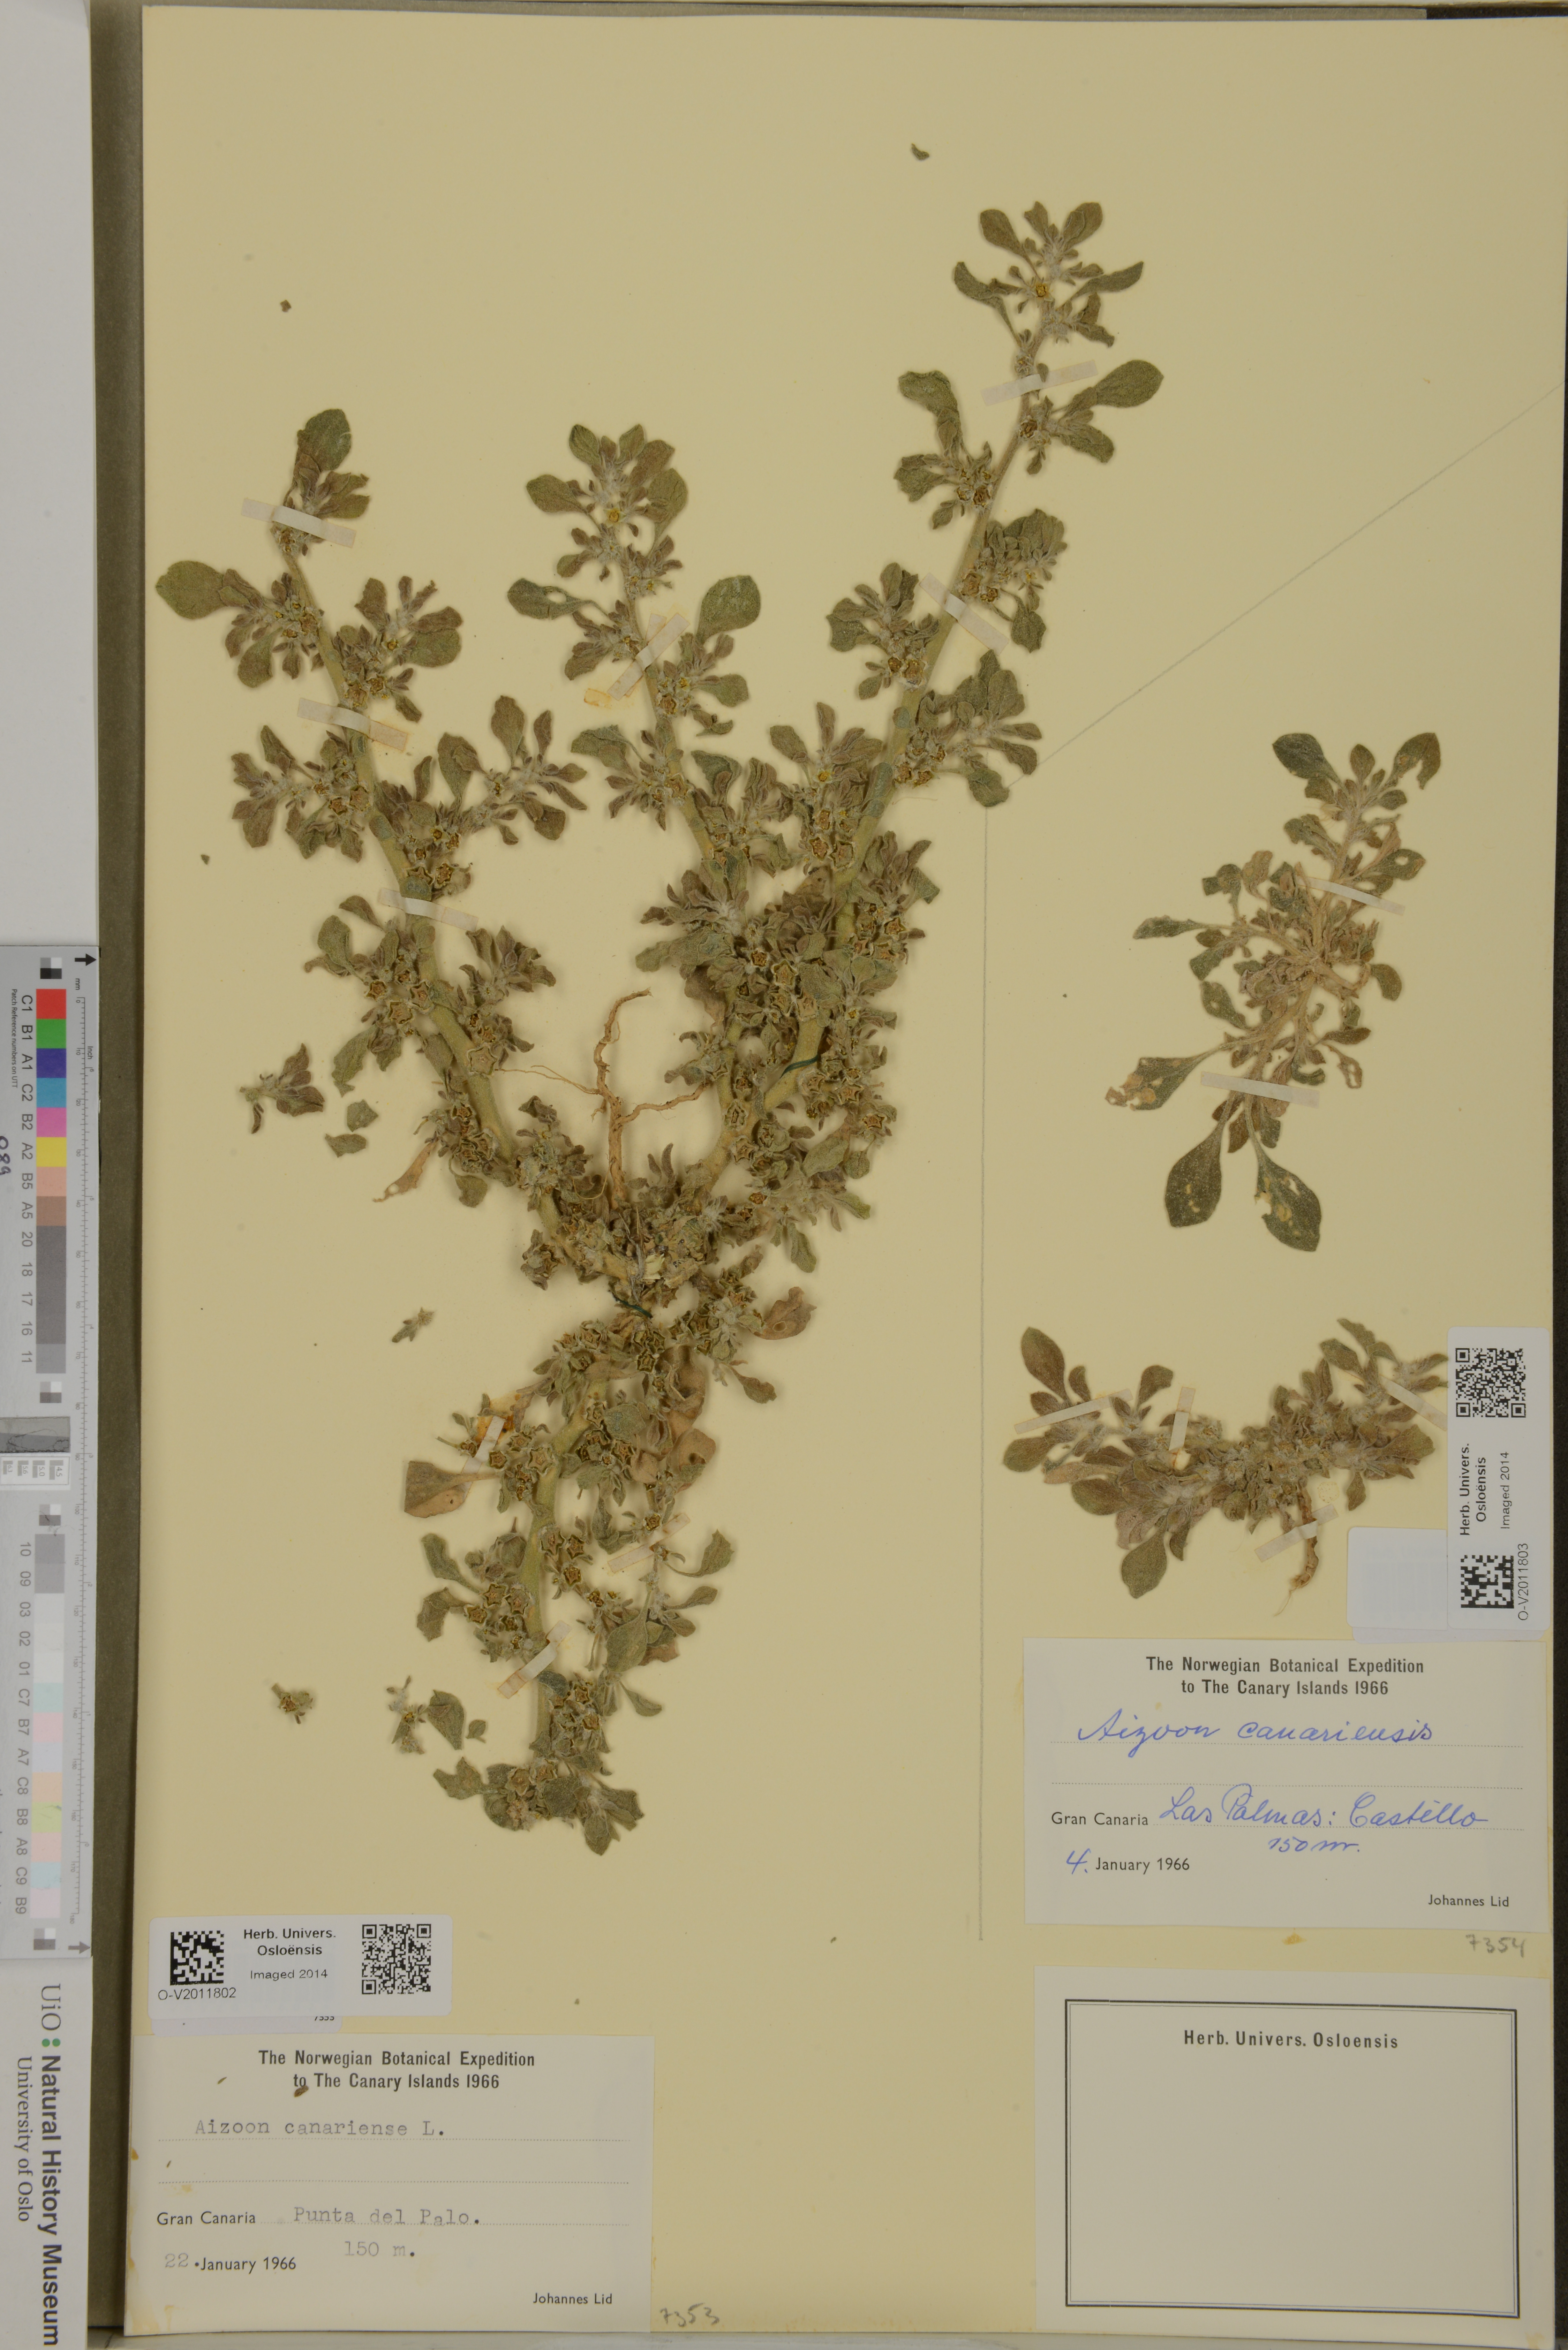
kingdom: Plantae
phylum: Tracheophyta
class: Magnoliopsida
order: Caryophyllales
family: Aizoaceae
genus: Aizoon
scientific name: Aizoon canariense
